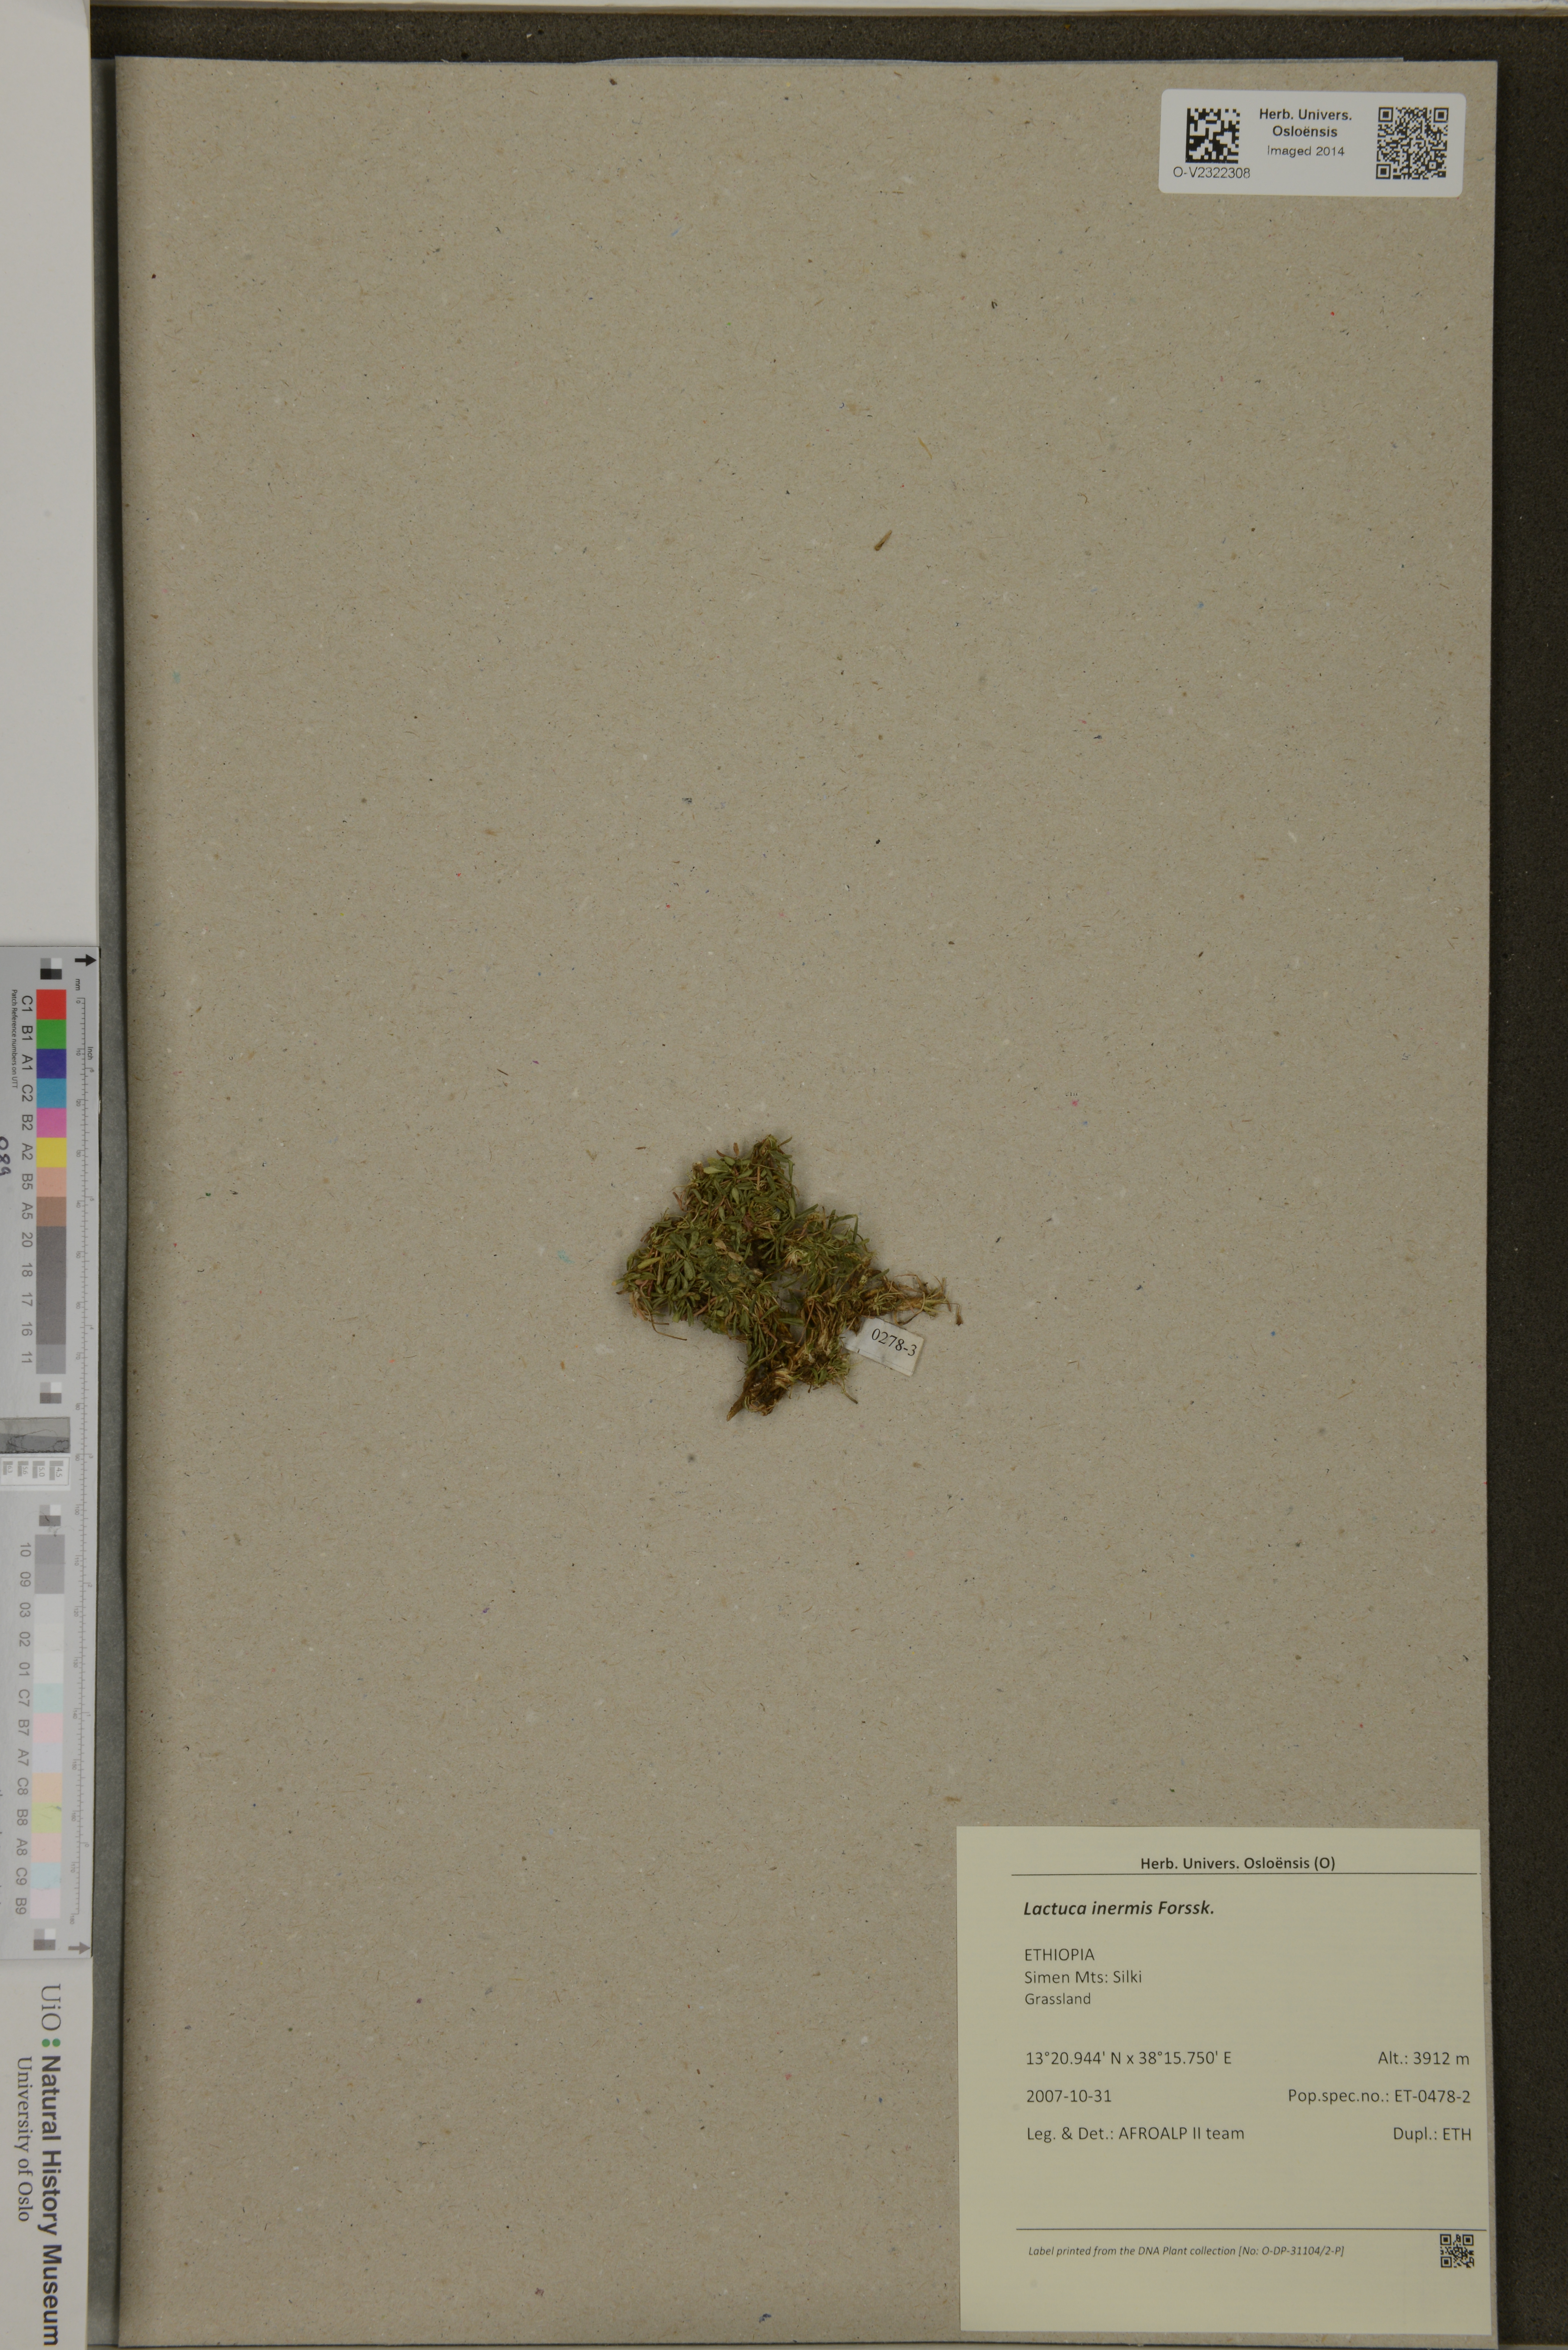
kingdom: Plantae
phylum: Tracheophyta
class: Magnoliopsida
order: Asterales
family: Asteraceae
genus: Lactuca
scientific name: Lactuca inermis
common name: Wild lettuce
